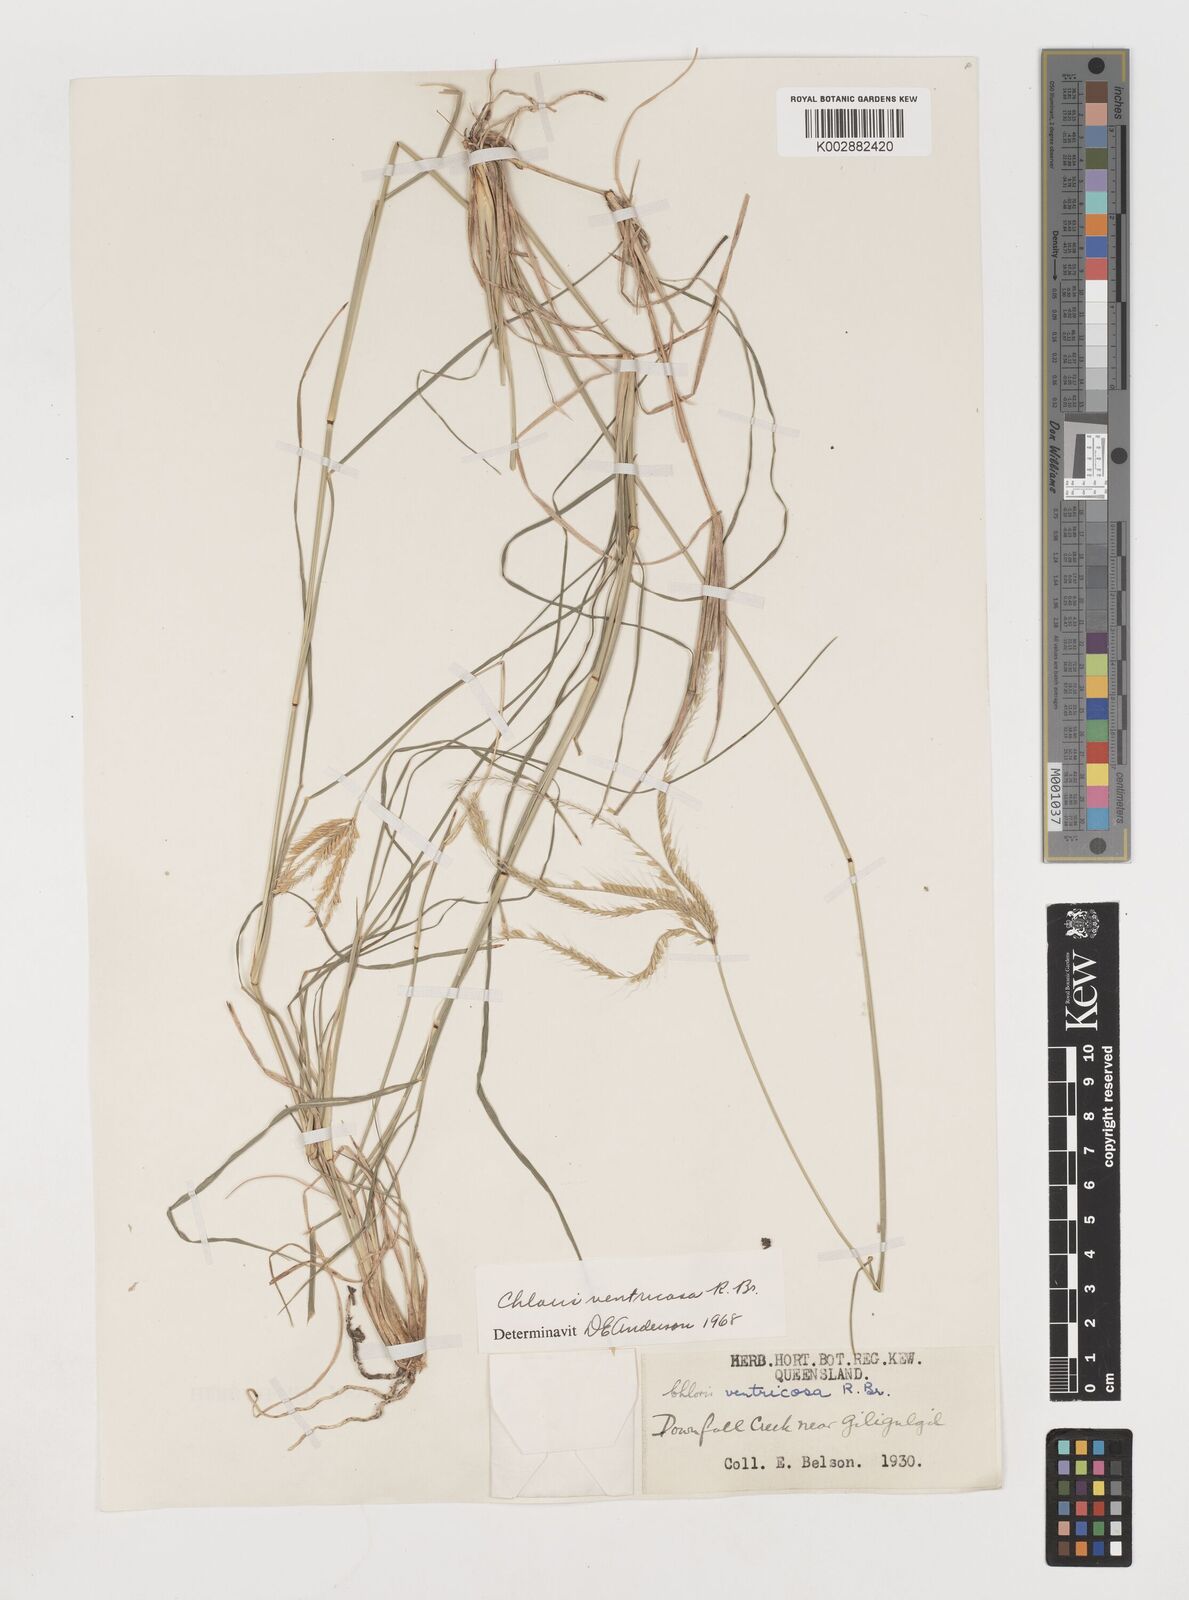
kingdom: Plantae
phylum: Tracheophyta
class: Liliopsida
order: Poales
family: Poaceae
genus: Chloris
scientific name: Chloris ventricosa
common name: Australian windmill grass
